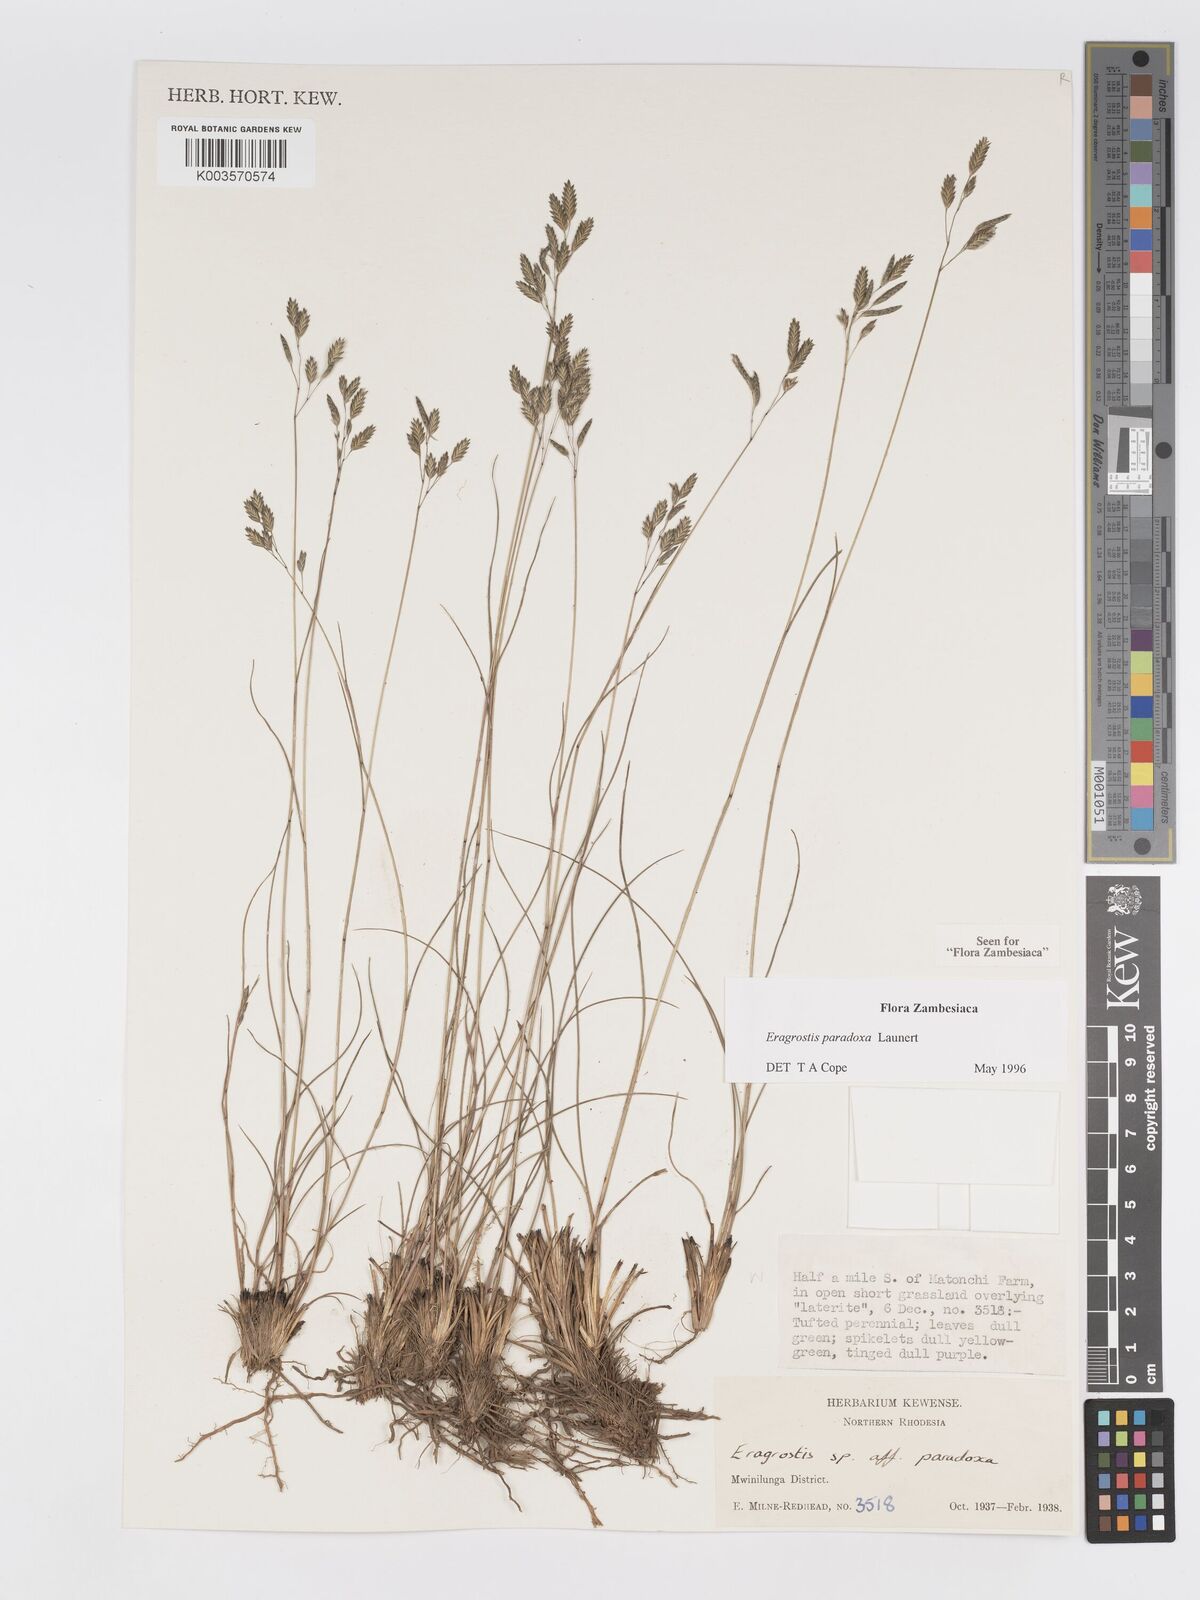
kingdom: Plantae
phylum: Tracheophyta
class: Liliopsida
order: Poales
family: Poaceae
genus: Eragrostis
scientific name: Eragrostis paradoxa
